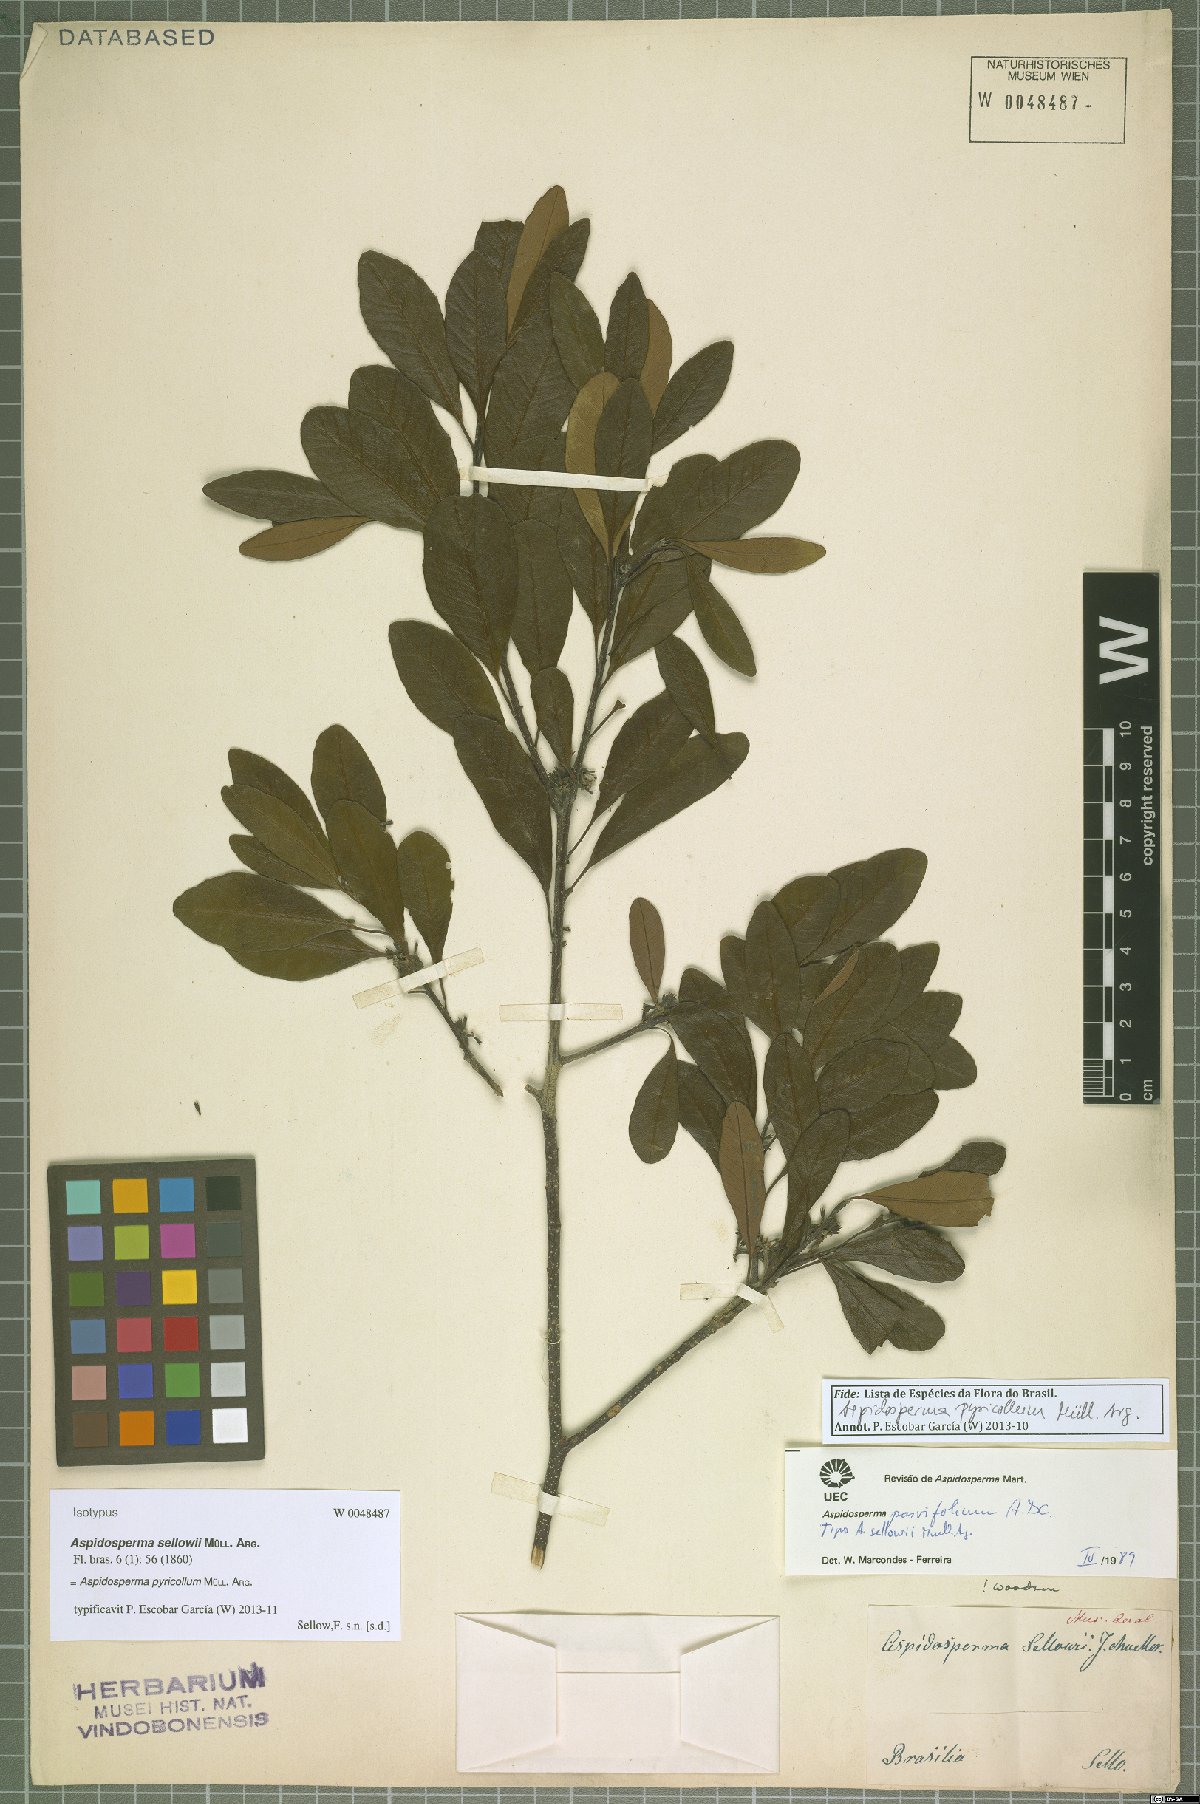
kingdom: Plantae
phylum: Tracheophyta
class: Magnoliopsida
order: Gentianales
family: Apocynaceae
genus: Aspidosperma
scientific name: Aspidosperma pyricollum
